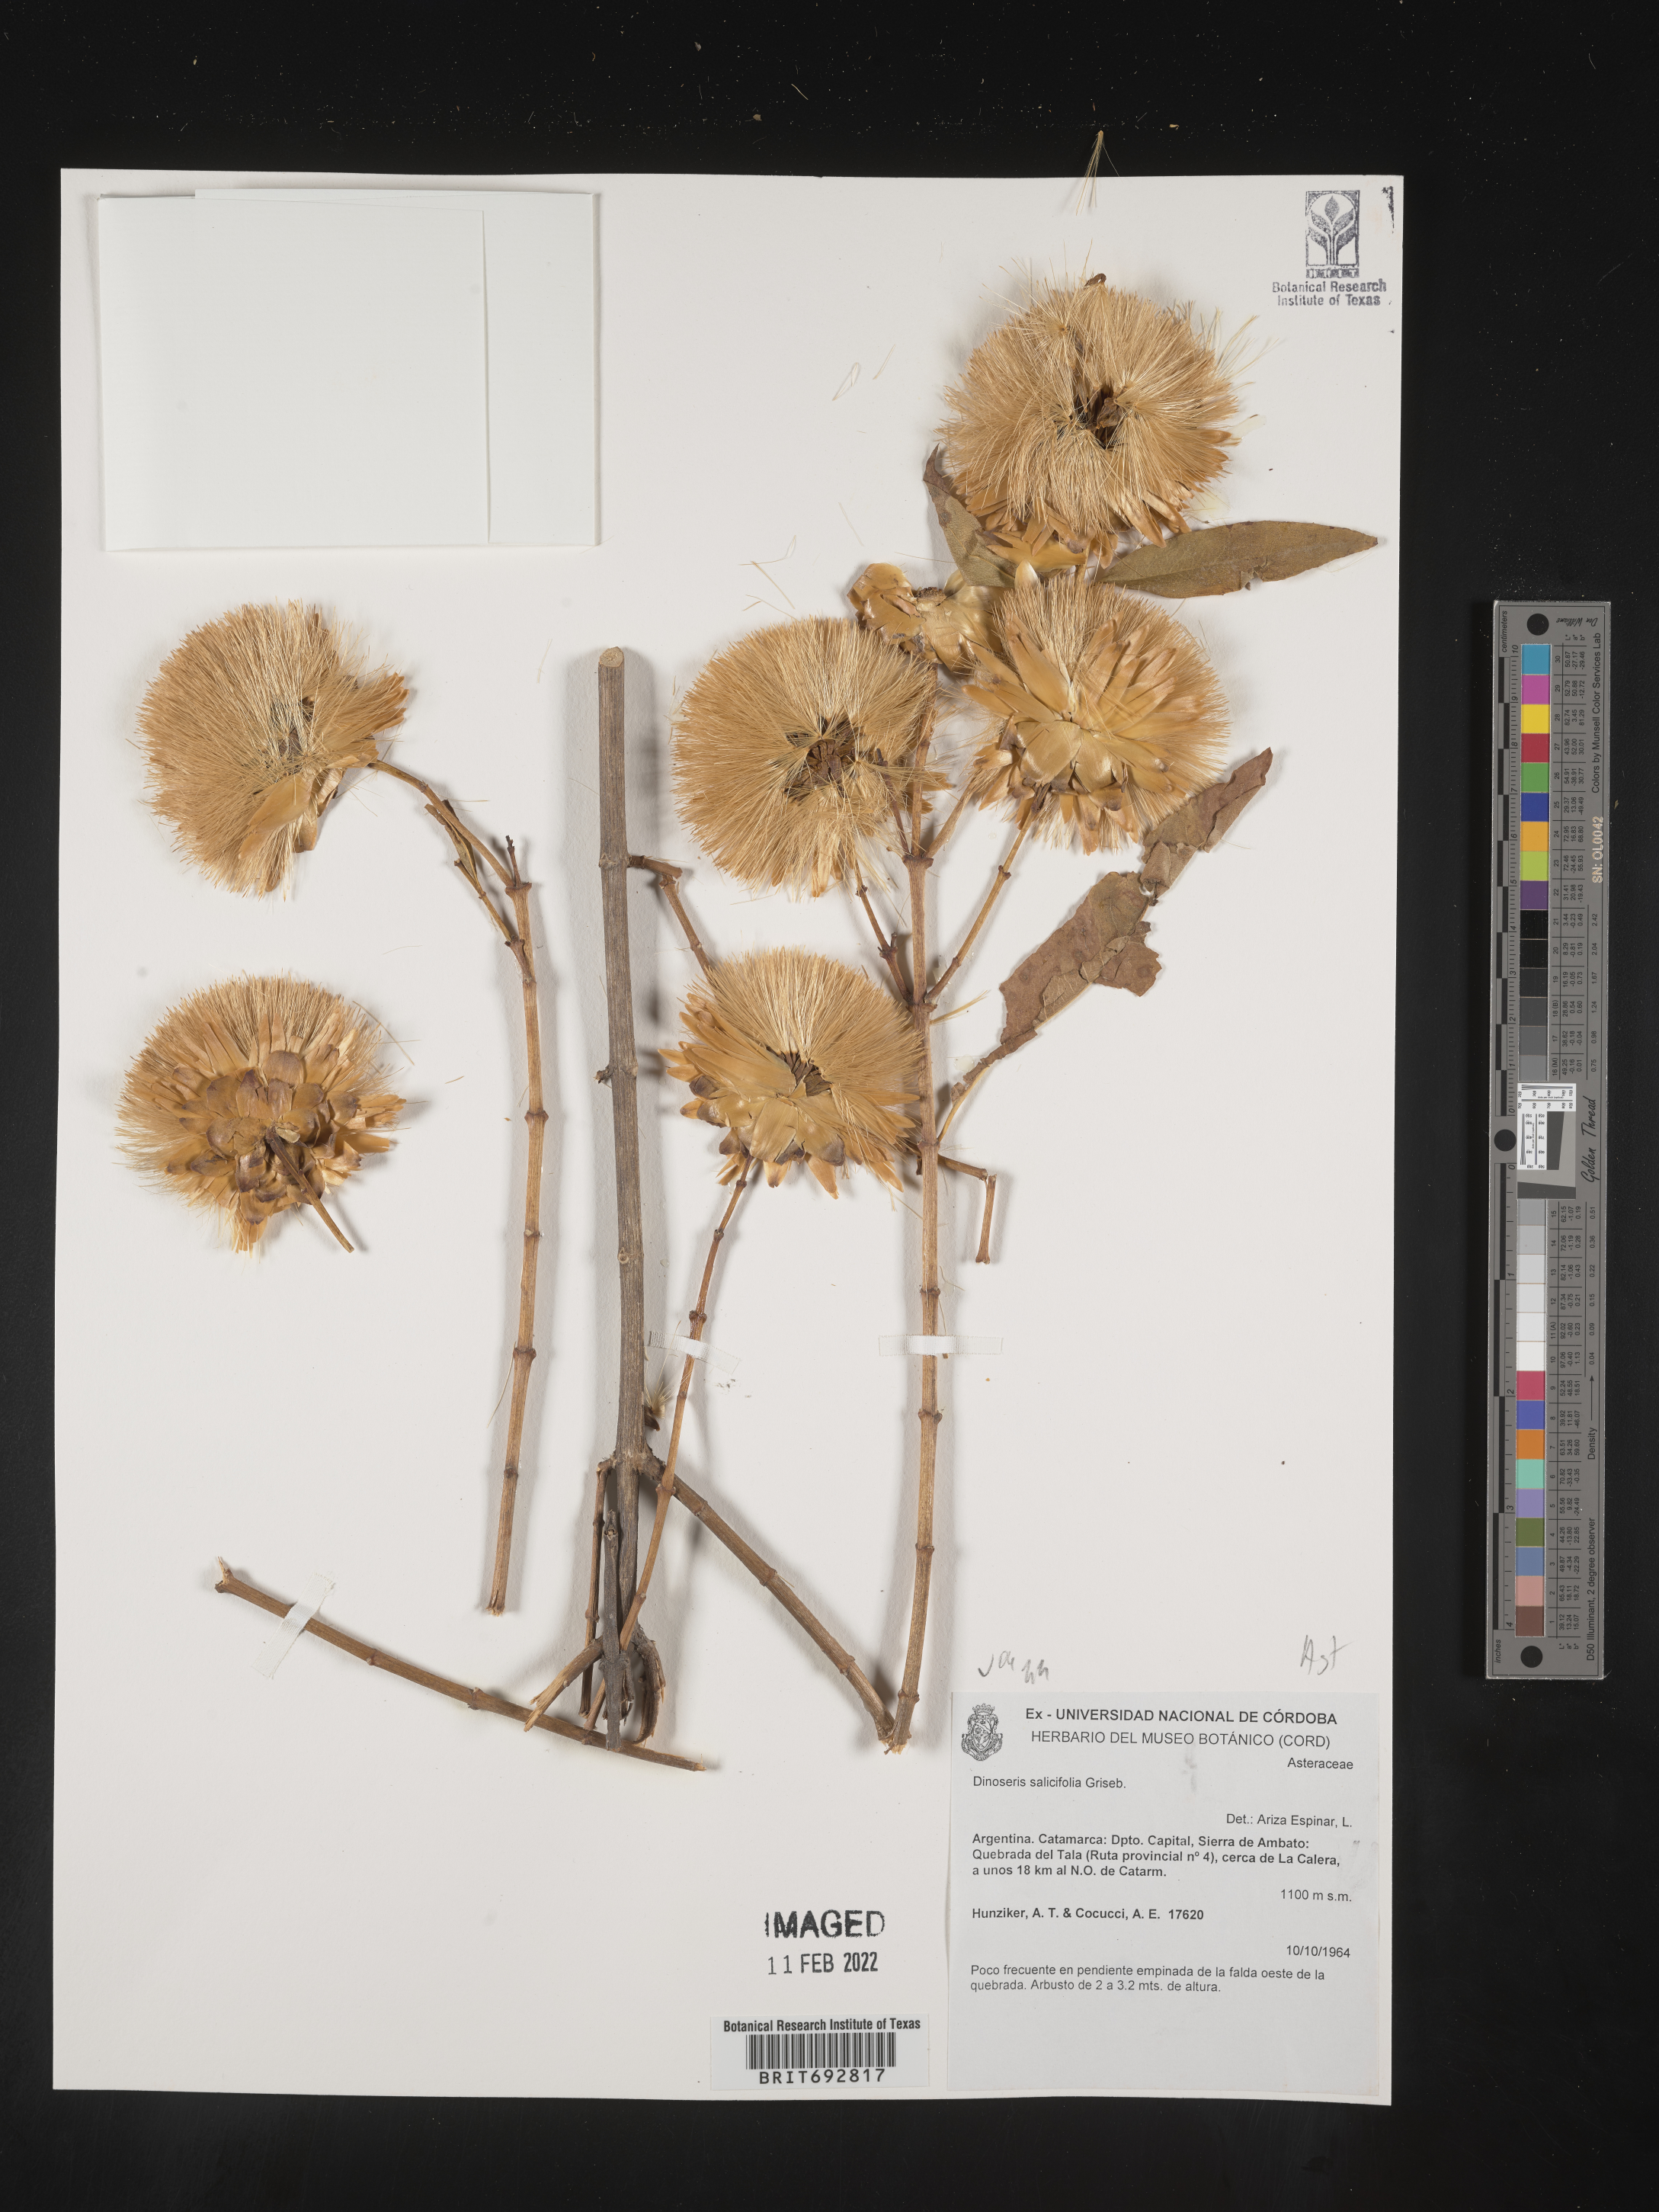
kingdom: Plantae
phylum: Tracheophyta
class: Magnoliopsida
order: Asterales
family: Asteraceae
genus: Hyaloseris
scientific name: Hyaloseris
